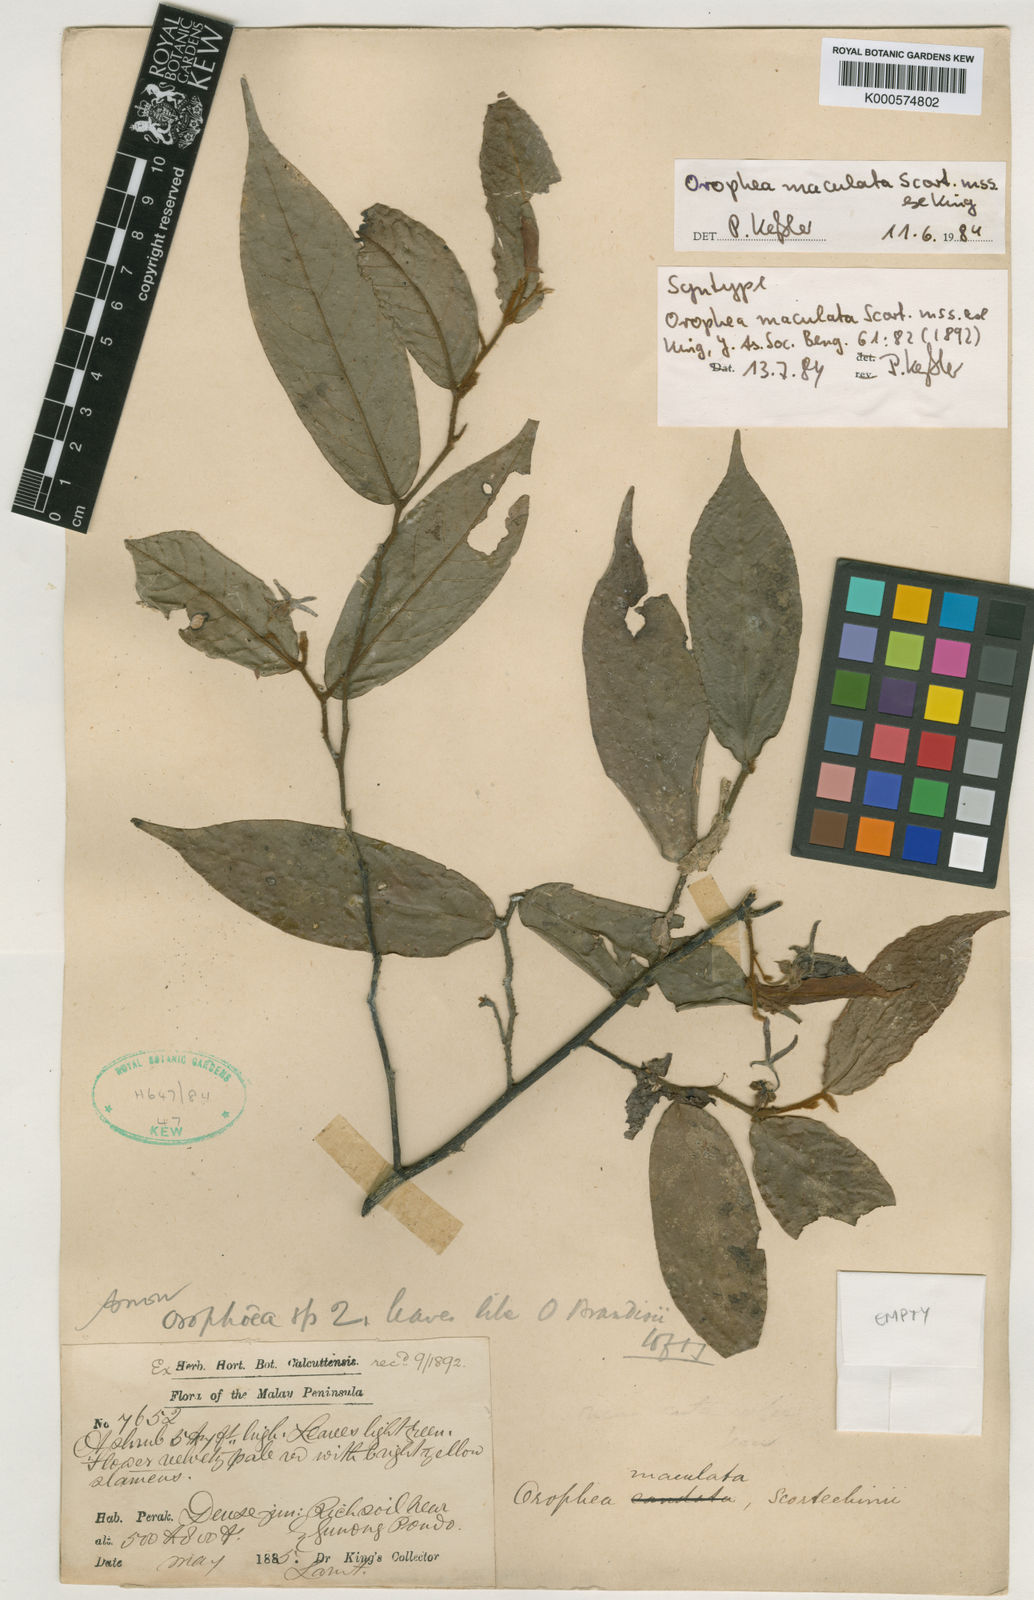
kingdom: Plantae
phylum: Tracheophyta
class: Magnoliopsida
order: Magnoliales
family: Annonaceae
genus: Orophea
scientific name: Orophea maculata
